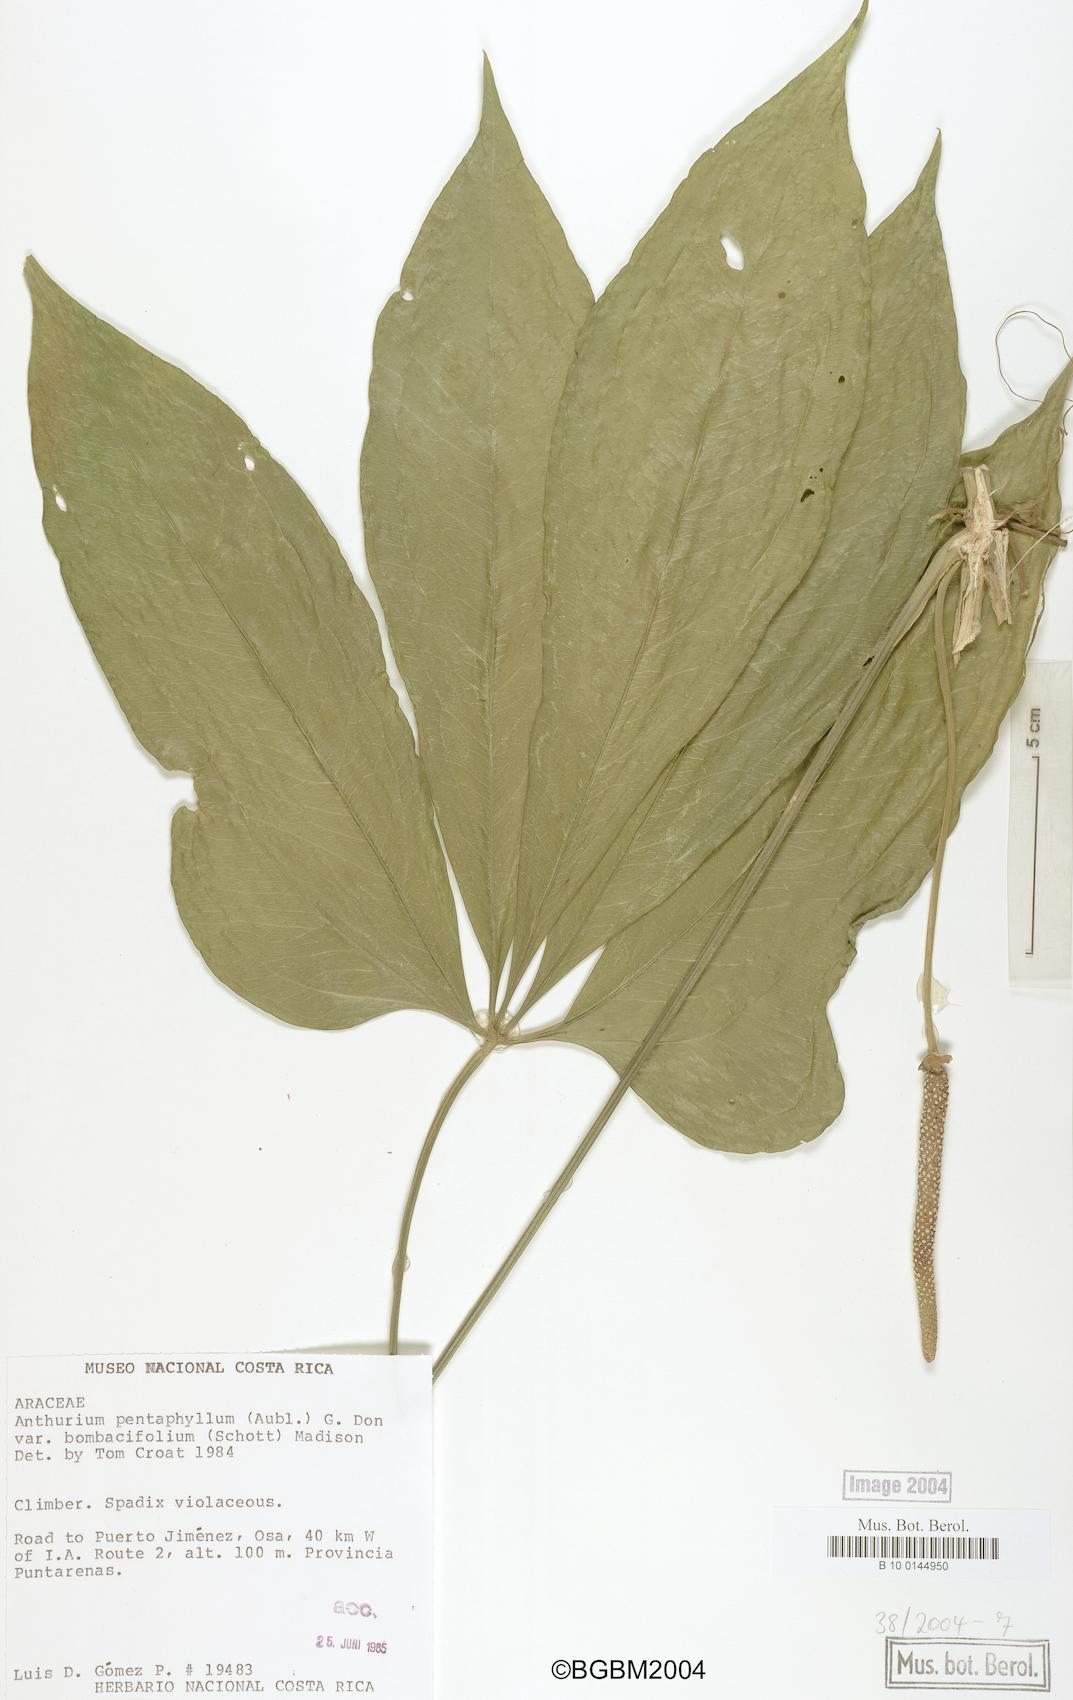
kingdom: Plantae
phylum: Tracheophyta
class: Liliopsida
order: Alismatales
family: Araceae
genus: Anthurium
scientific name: Anthurium pentaphyllum
